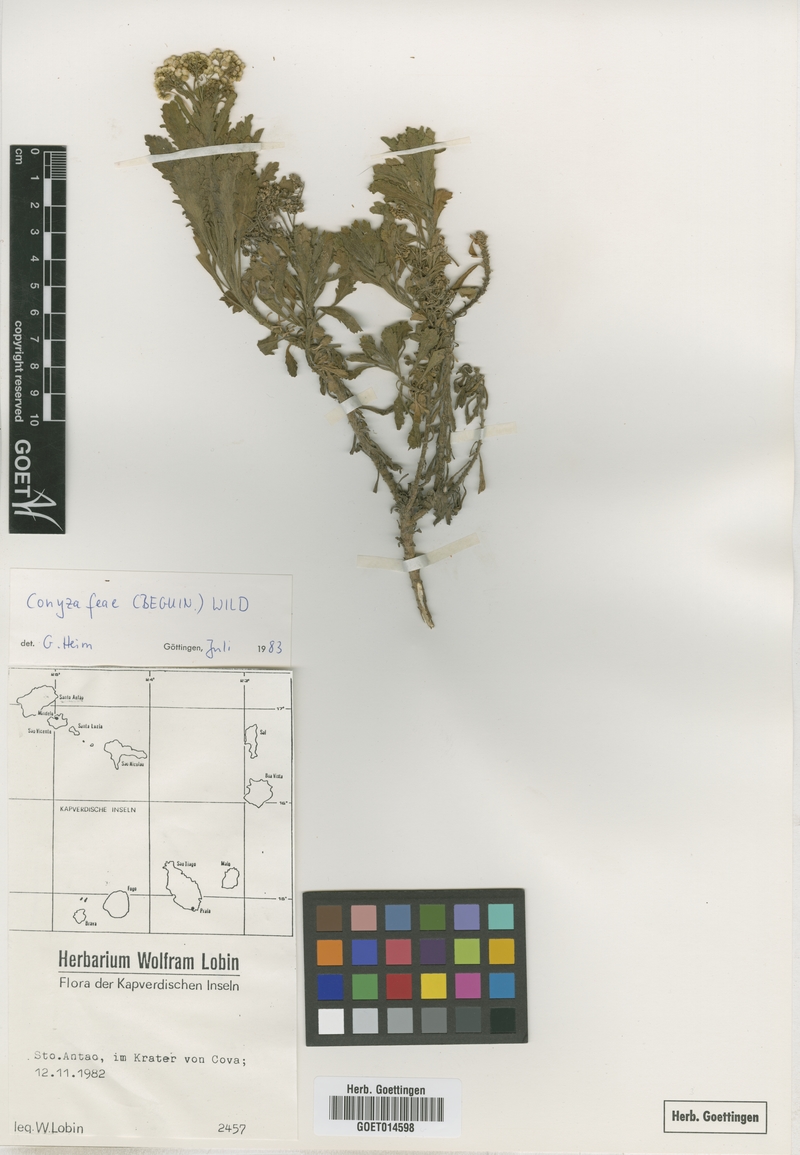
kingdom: Plantae
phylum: Tracheophyta
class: Magnoliopsida
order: Asterales
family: Asteraceae
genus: Nidorella
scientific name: Nidorella nobrei
